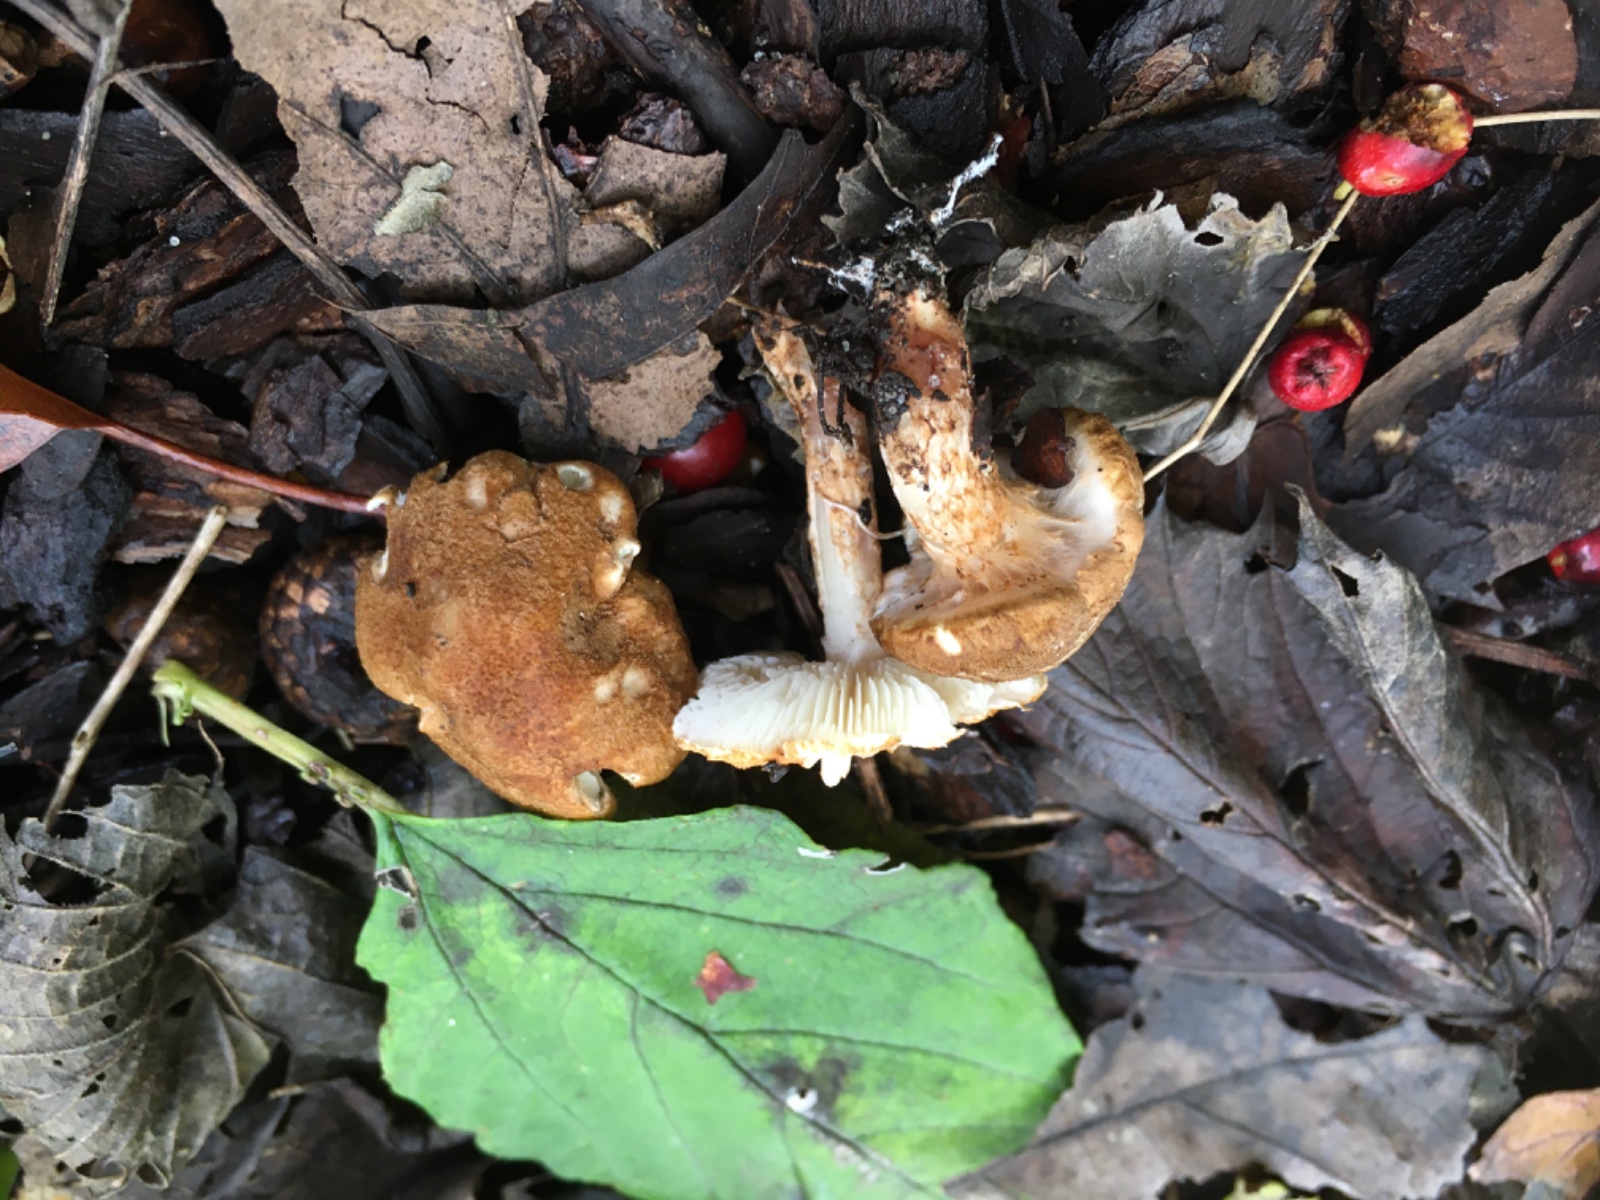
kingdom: Fungi
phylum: Basidiomycota
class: Agaricomycetes
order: Agaricales
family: Agaricaceae
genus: Leucocoprinus
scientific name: Leucocoprinus straminellus
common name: rustbrun parasolhat
